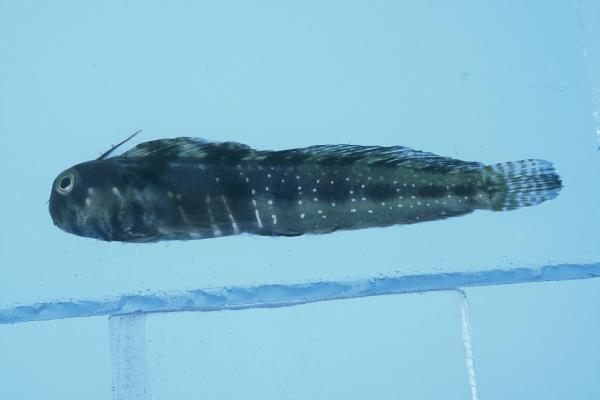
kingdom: Animalia
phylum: Chordata
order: Perciformes
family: Blenniidae
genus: Antennablennius
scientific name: Antennablennius bifilum
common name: Horned rockskipper
